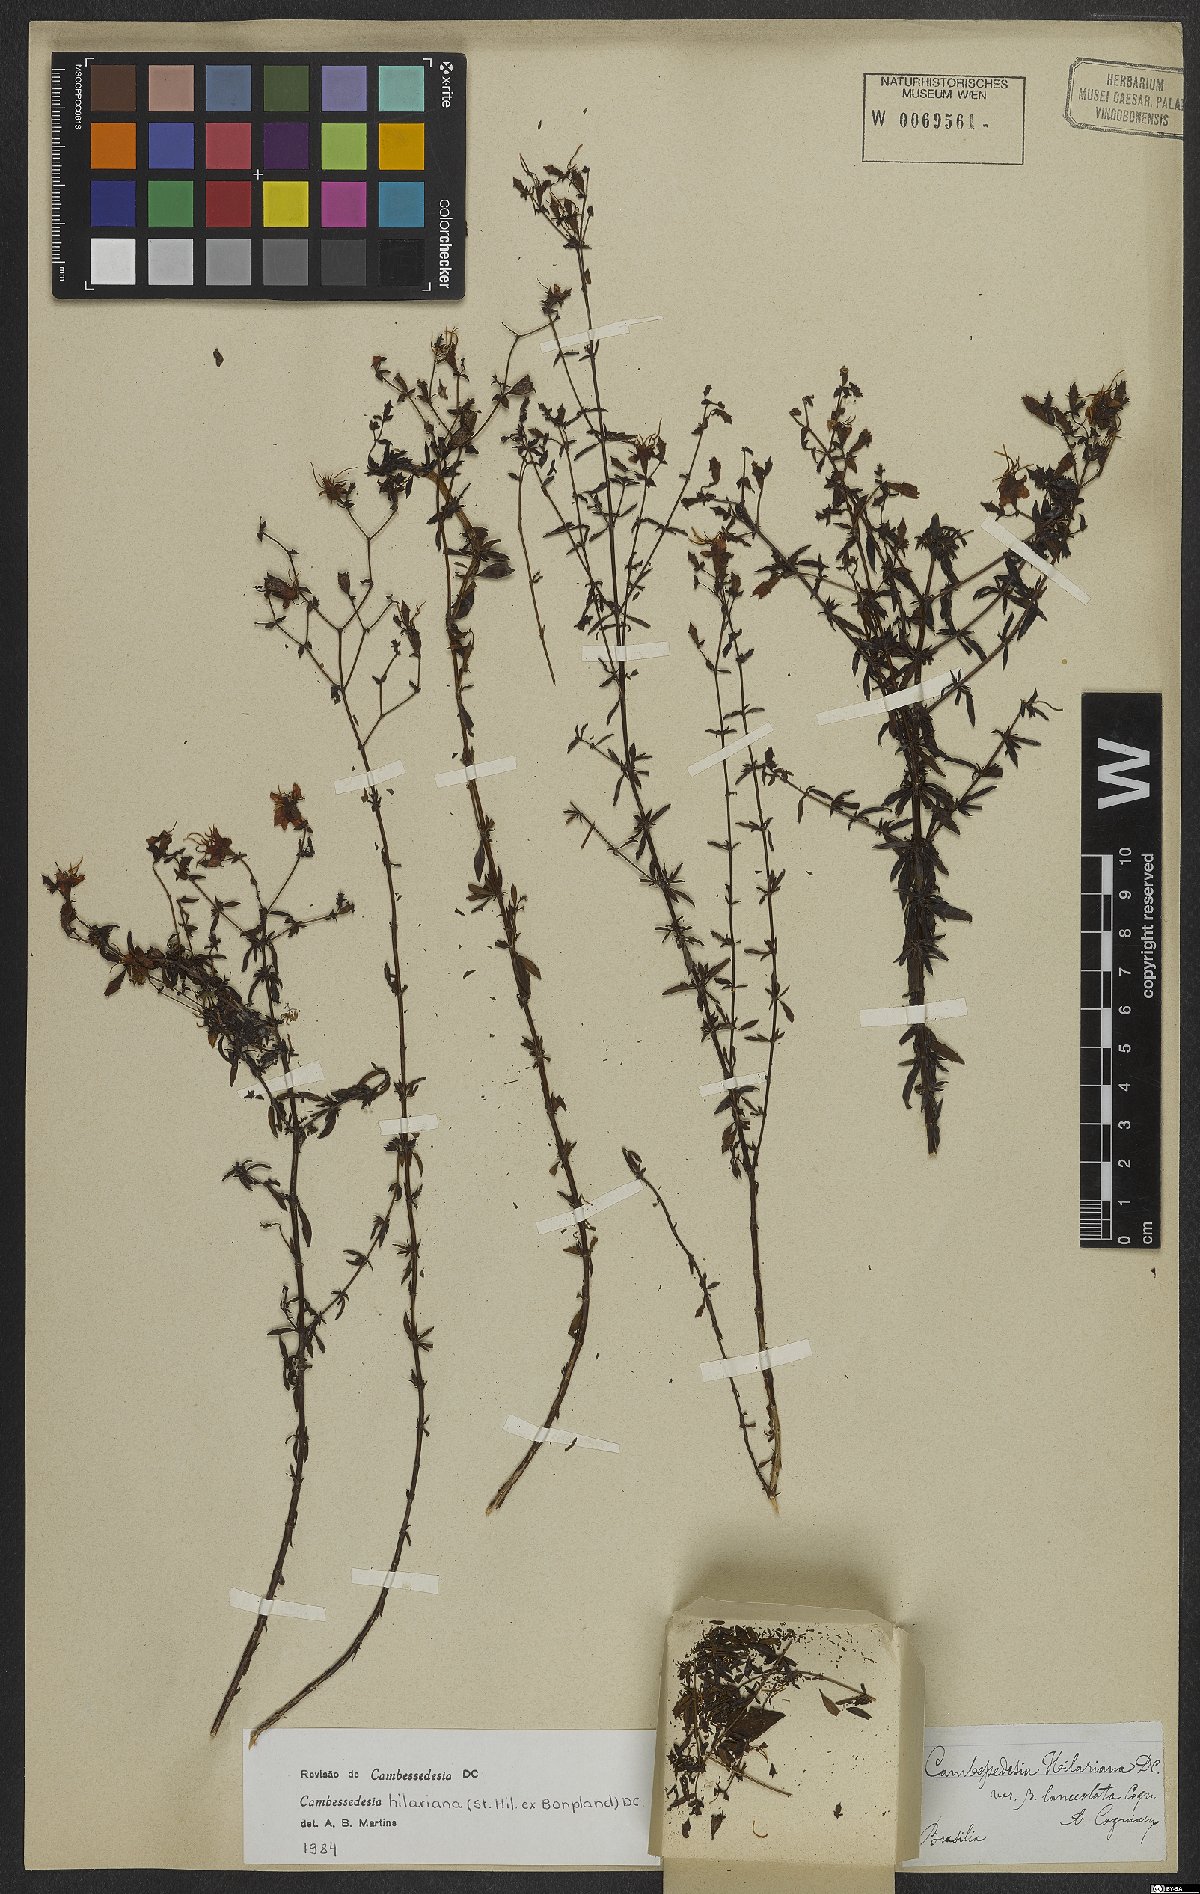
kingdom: Plantae
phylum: Tracheophyta
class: Magnoliopsida
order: Myrtales
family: Melastomataceae
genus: Cambessedesia
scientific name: Cambessedesia hilariana
